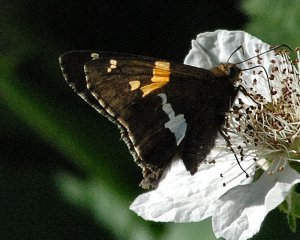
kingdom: Animalia
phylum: Arthropoda
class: Insecta
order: Lepidoptera
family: Hesperiidae
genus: Epargyreus
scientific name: Epargyreus clarus
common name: Silver-spotted Skipper
